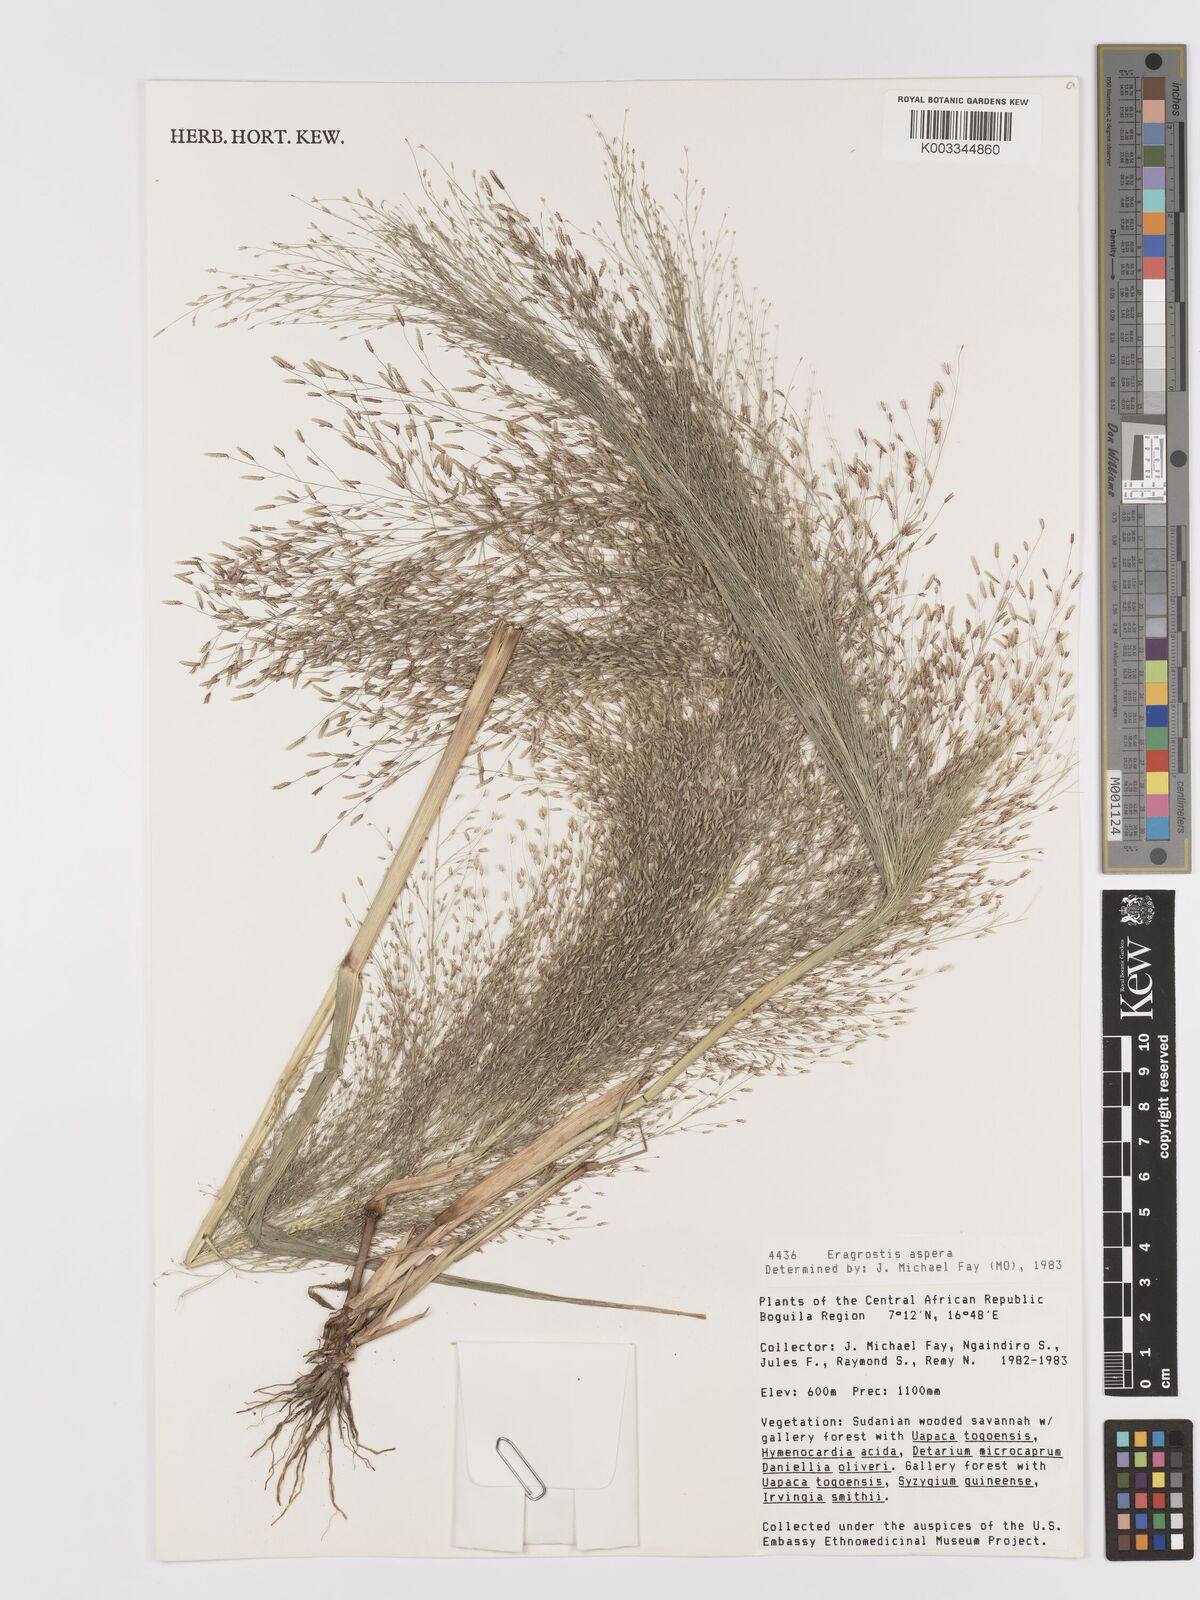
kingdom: Plantae
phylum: Tracheophyta
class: Liliopsida
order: Poales
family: Poaceae
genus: Eragrostis
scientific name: Eragrostis aspera
